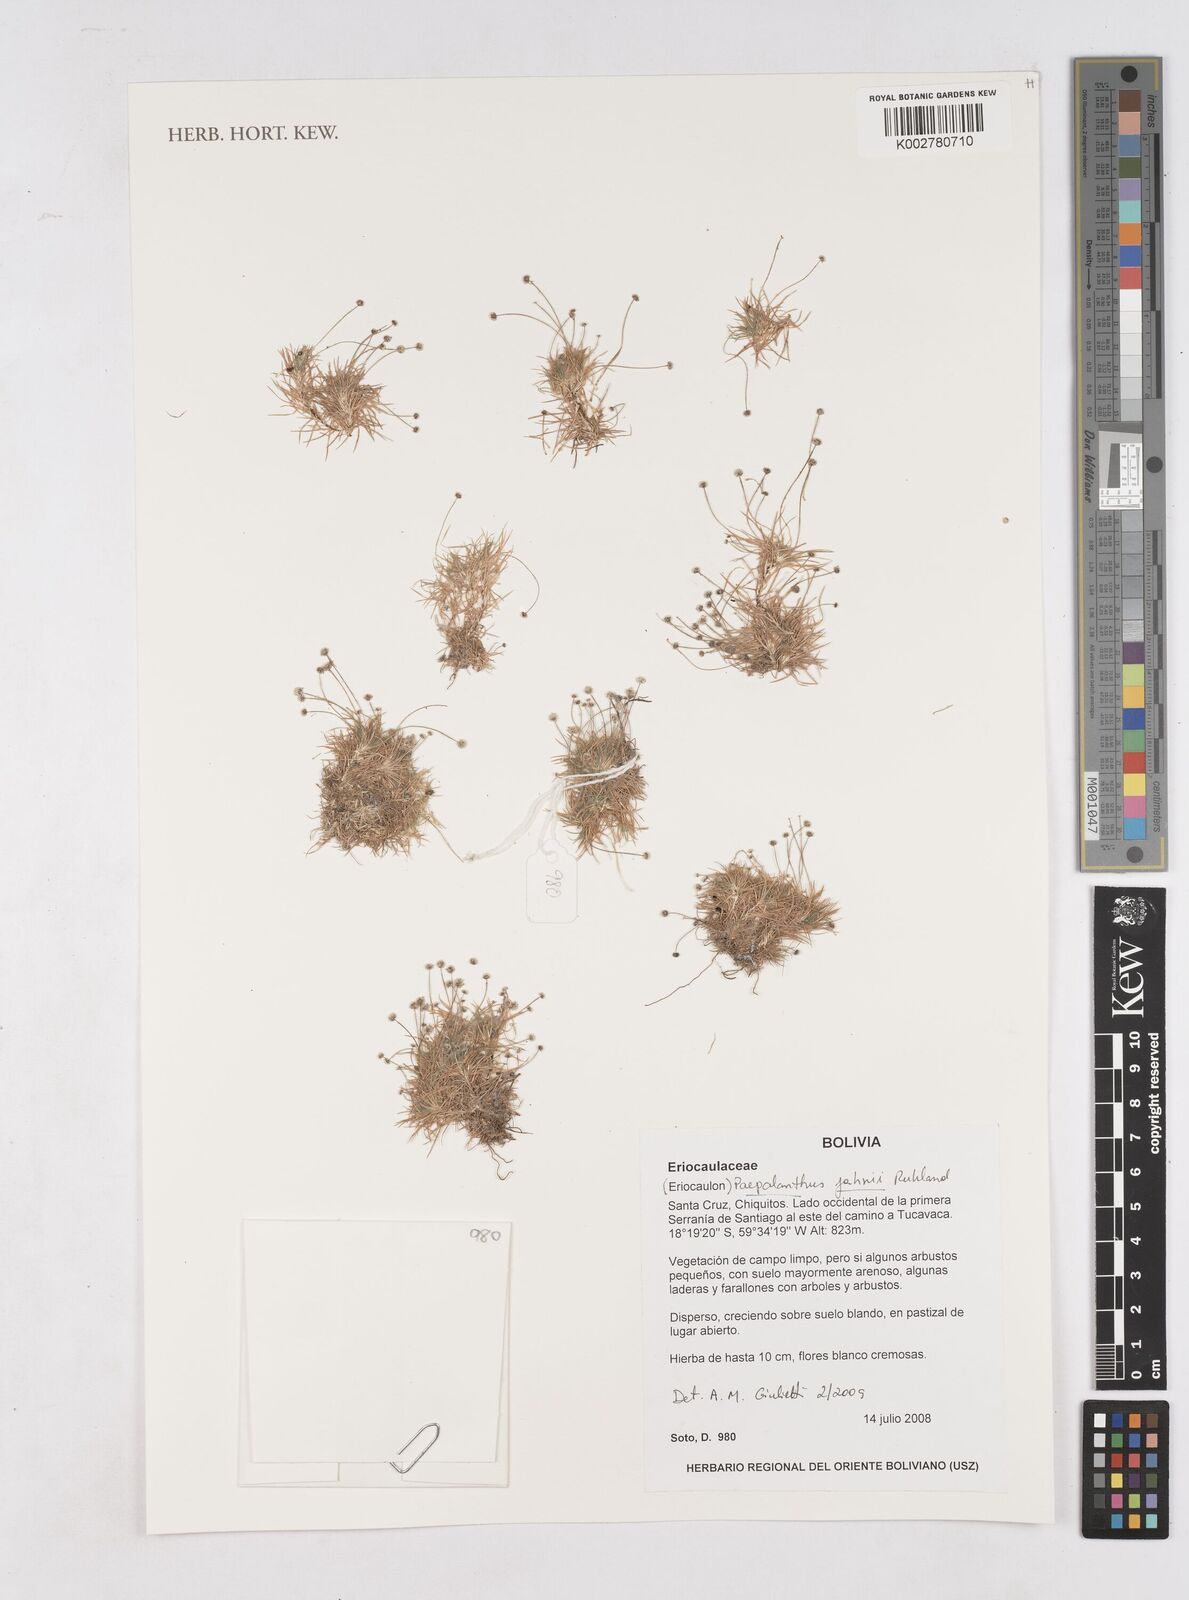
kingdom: Plantae
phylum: Tracheophyta
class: Liliopsida
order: Poales
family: Eriocaulaceae
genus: Paepalanthus
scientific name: Paepalanthus supinus
